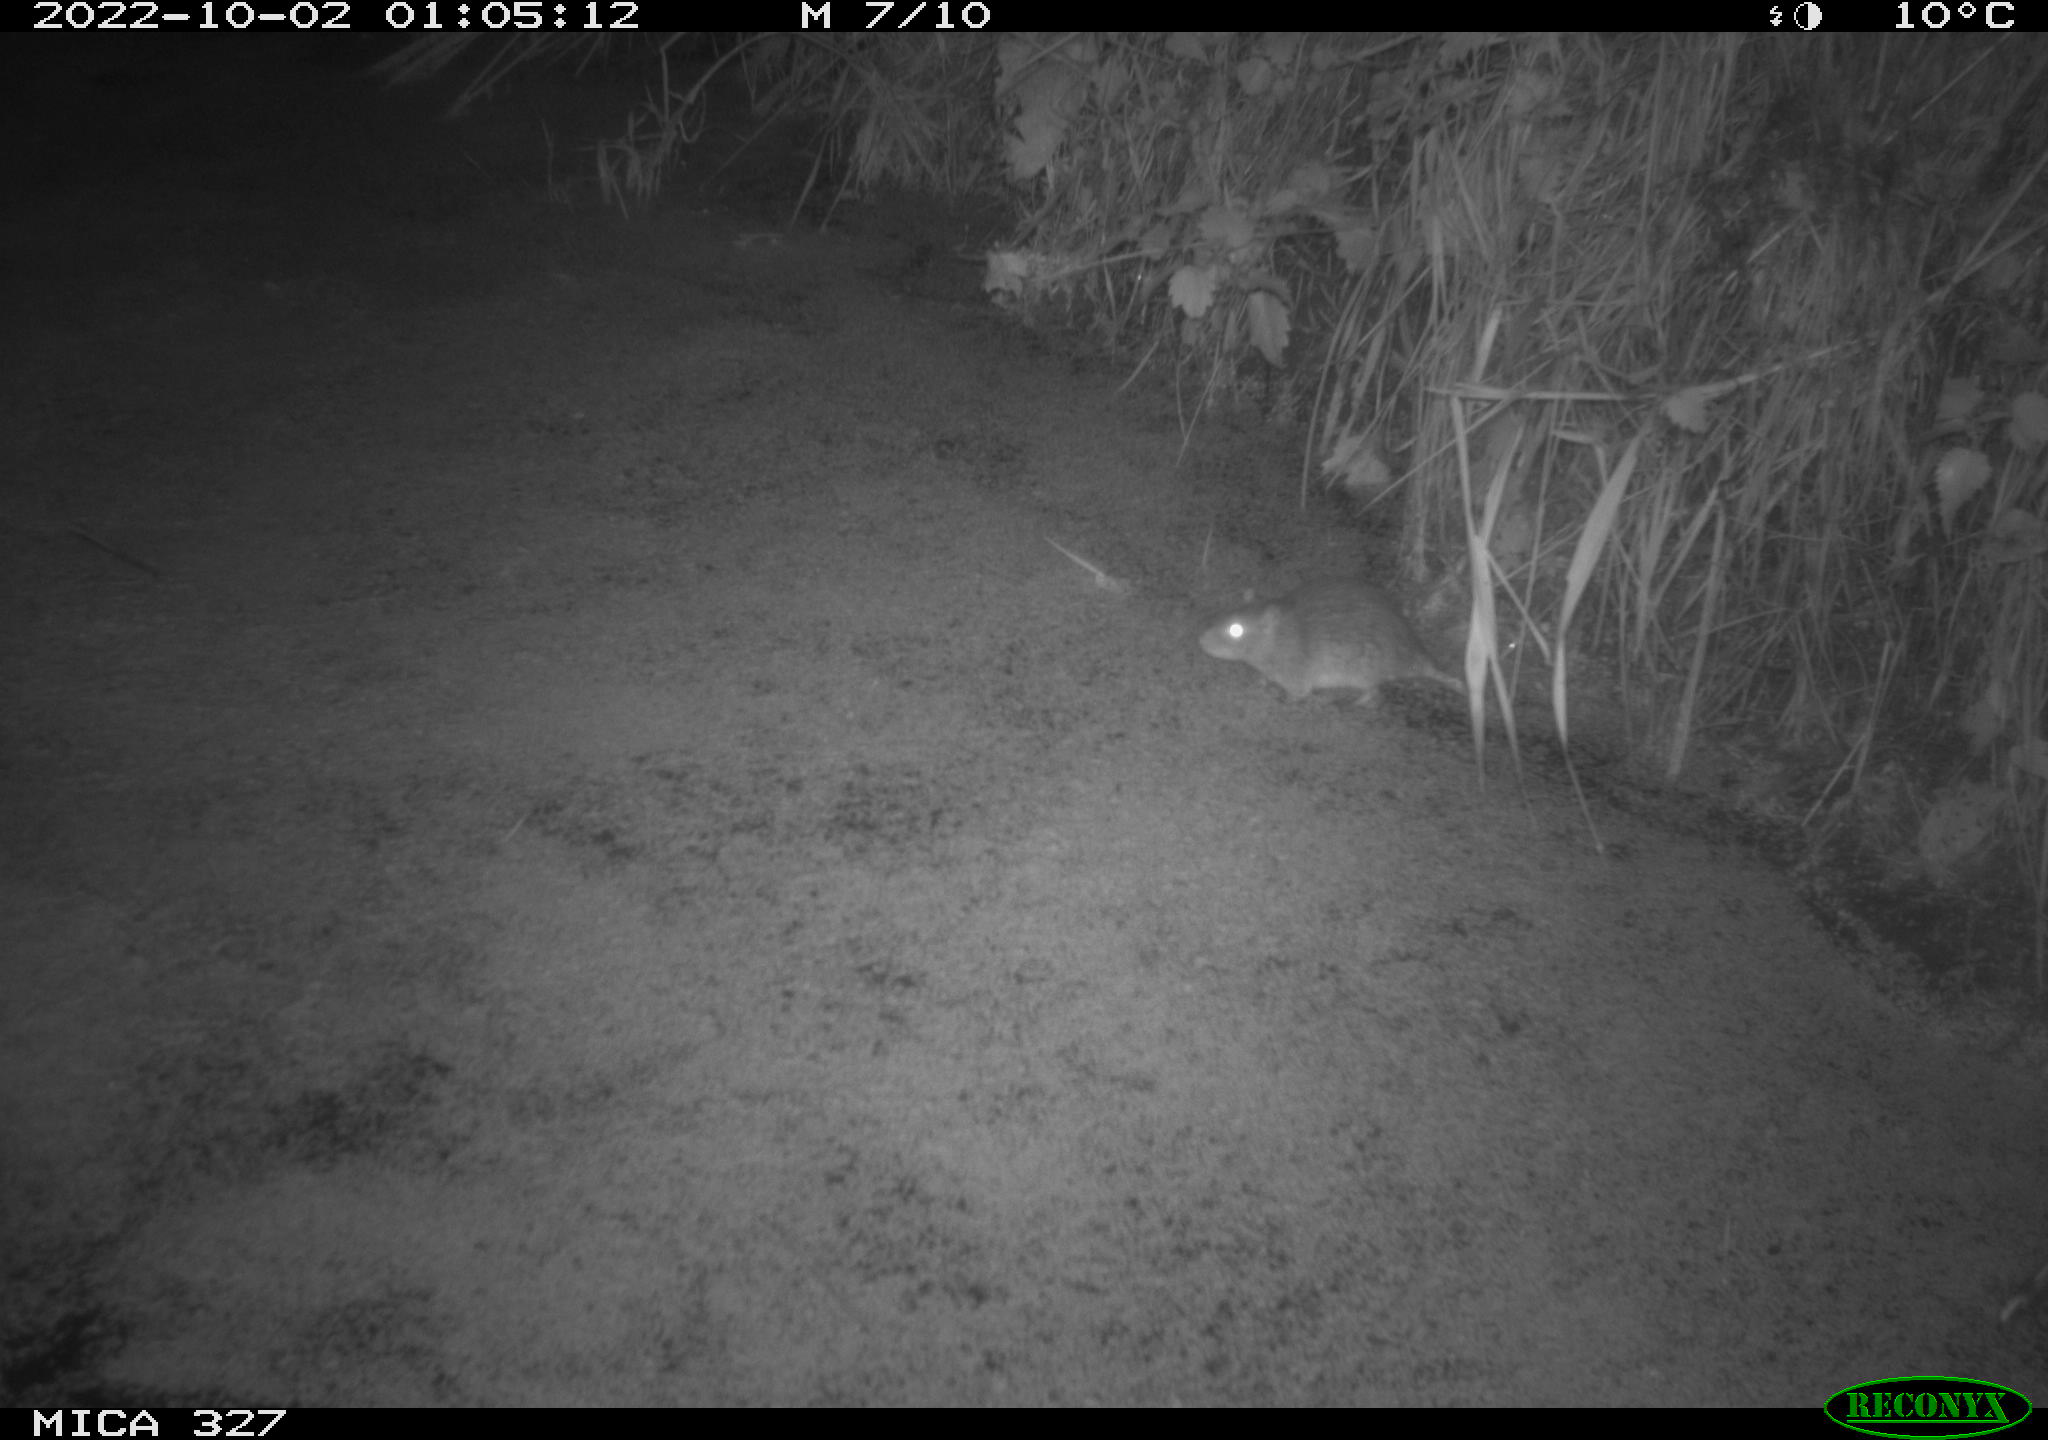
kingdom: Animalia
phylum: Chordata
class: Mammalia
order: Rodentia
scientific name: Rodentia
